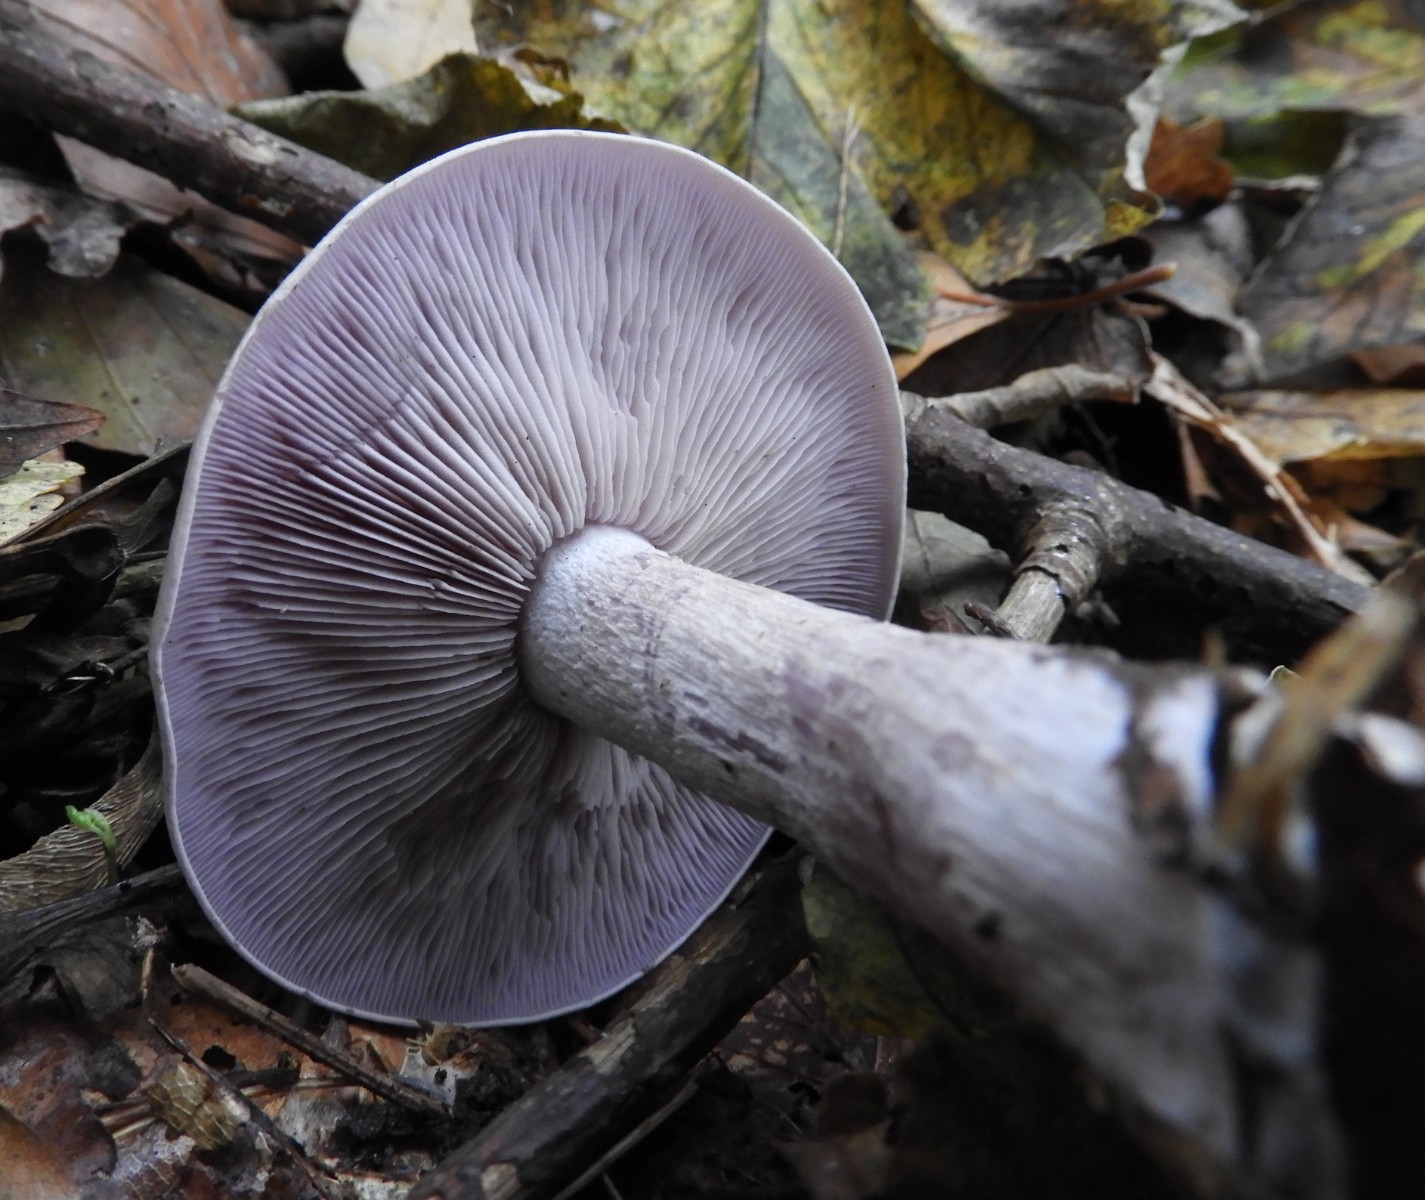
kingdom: Fungi
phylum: Basidiomycota
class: Agaricomycetes
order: Agaricales
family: Tricholomataceae
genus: Lepista
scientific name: Lepista nuda
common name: violet hekseringshat
